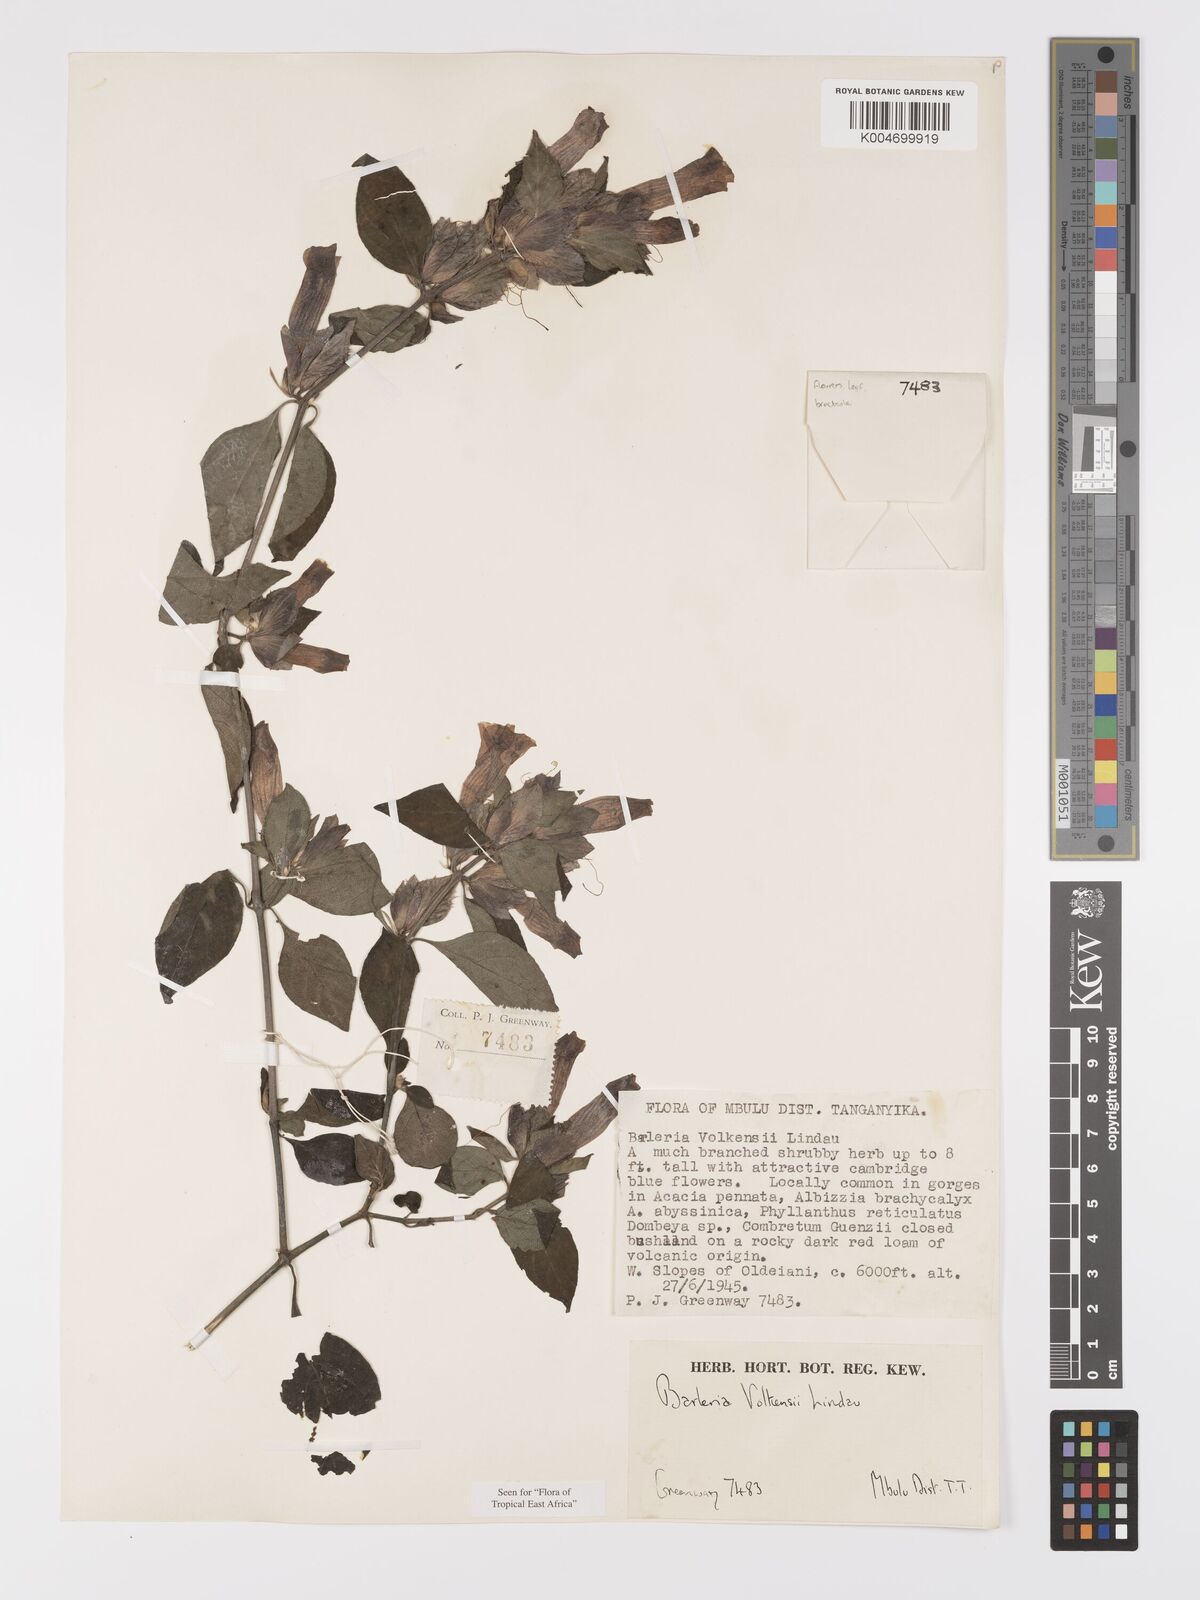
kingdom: Plantae
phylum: Tracheophyta
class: Magnoliopsida
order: Lamiales
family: Acanthaceae
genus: Barleria
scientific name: Barleria volkensii
